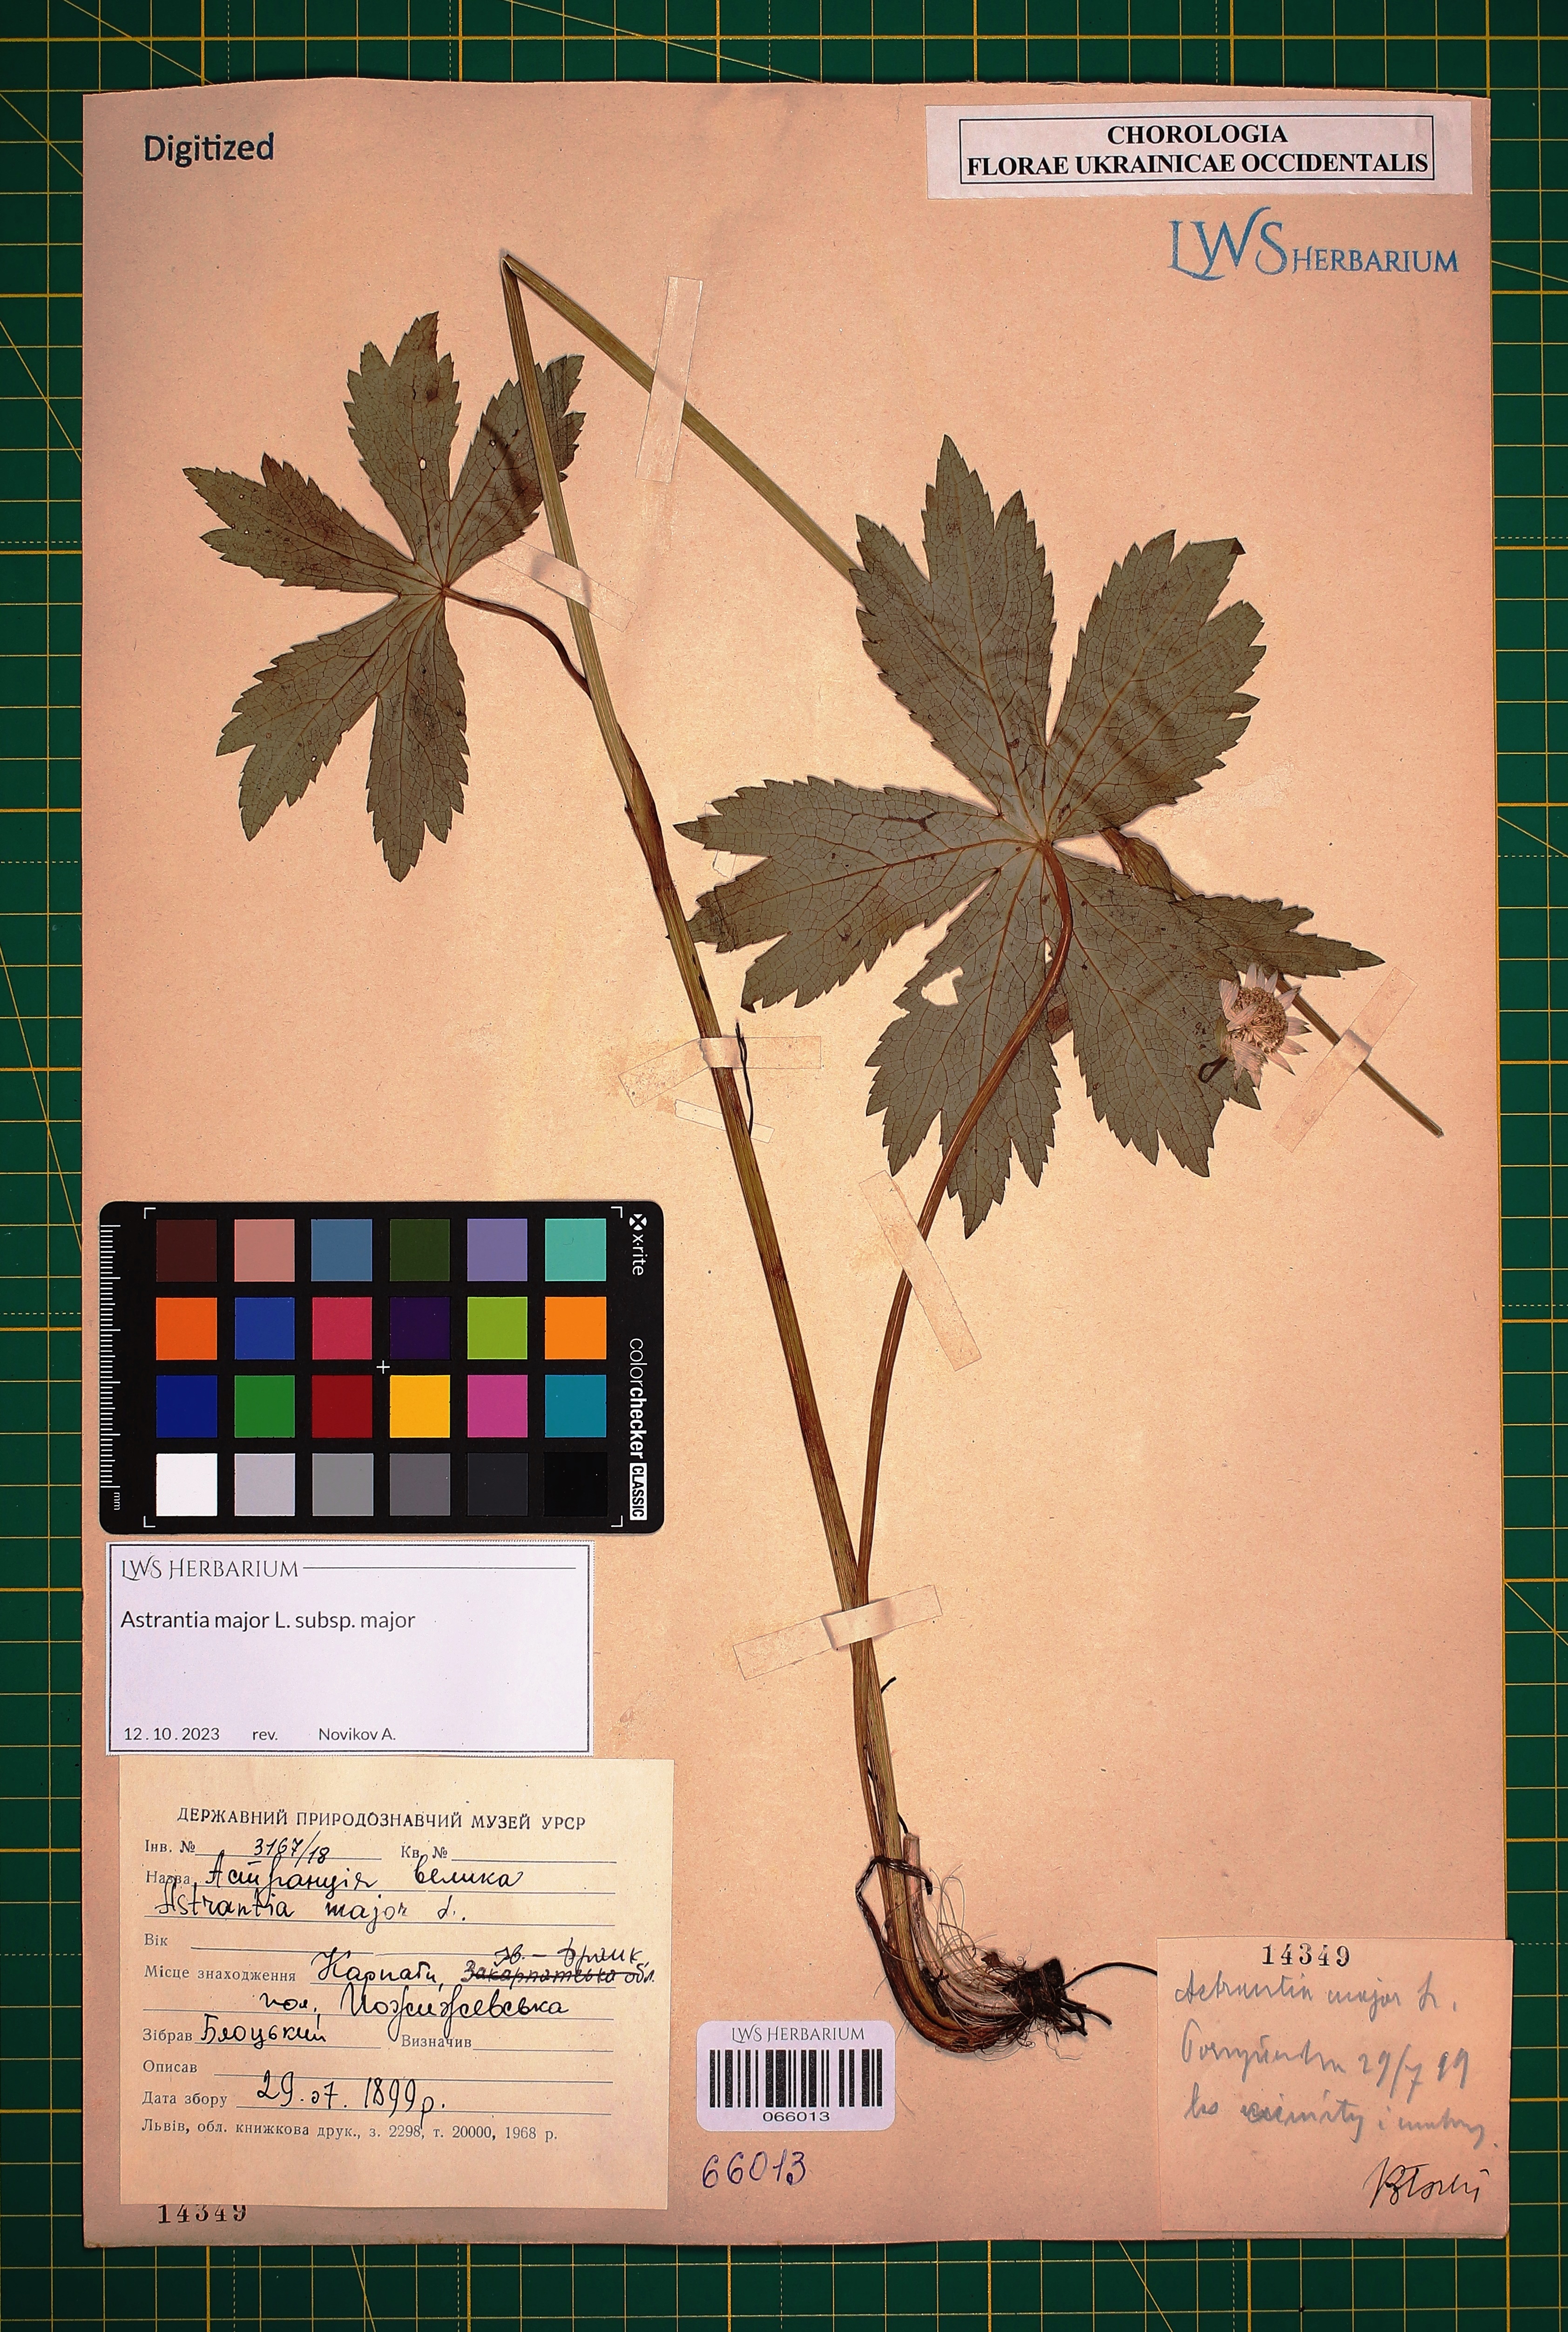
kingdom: Plantae
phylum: Tracheophyta
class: Magnoliopsida
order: Apiales
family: Apiaceae
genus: Astrantia
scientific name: Astrantia major
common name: Greater masterwort
